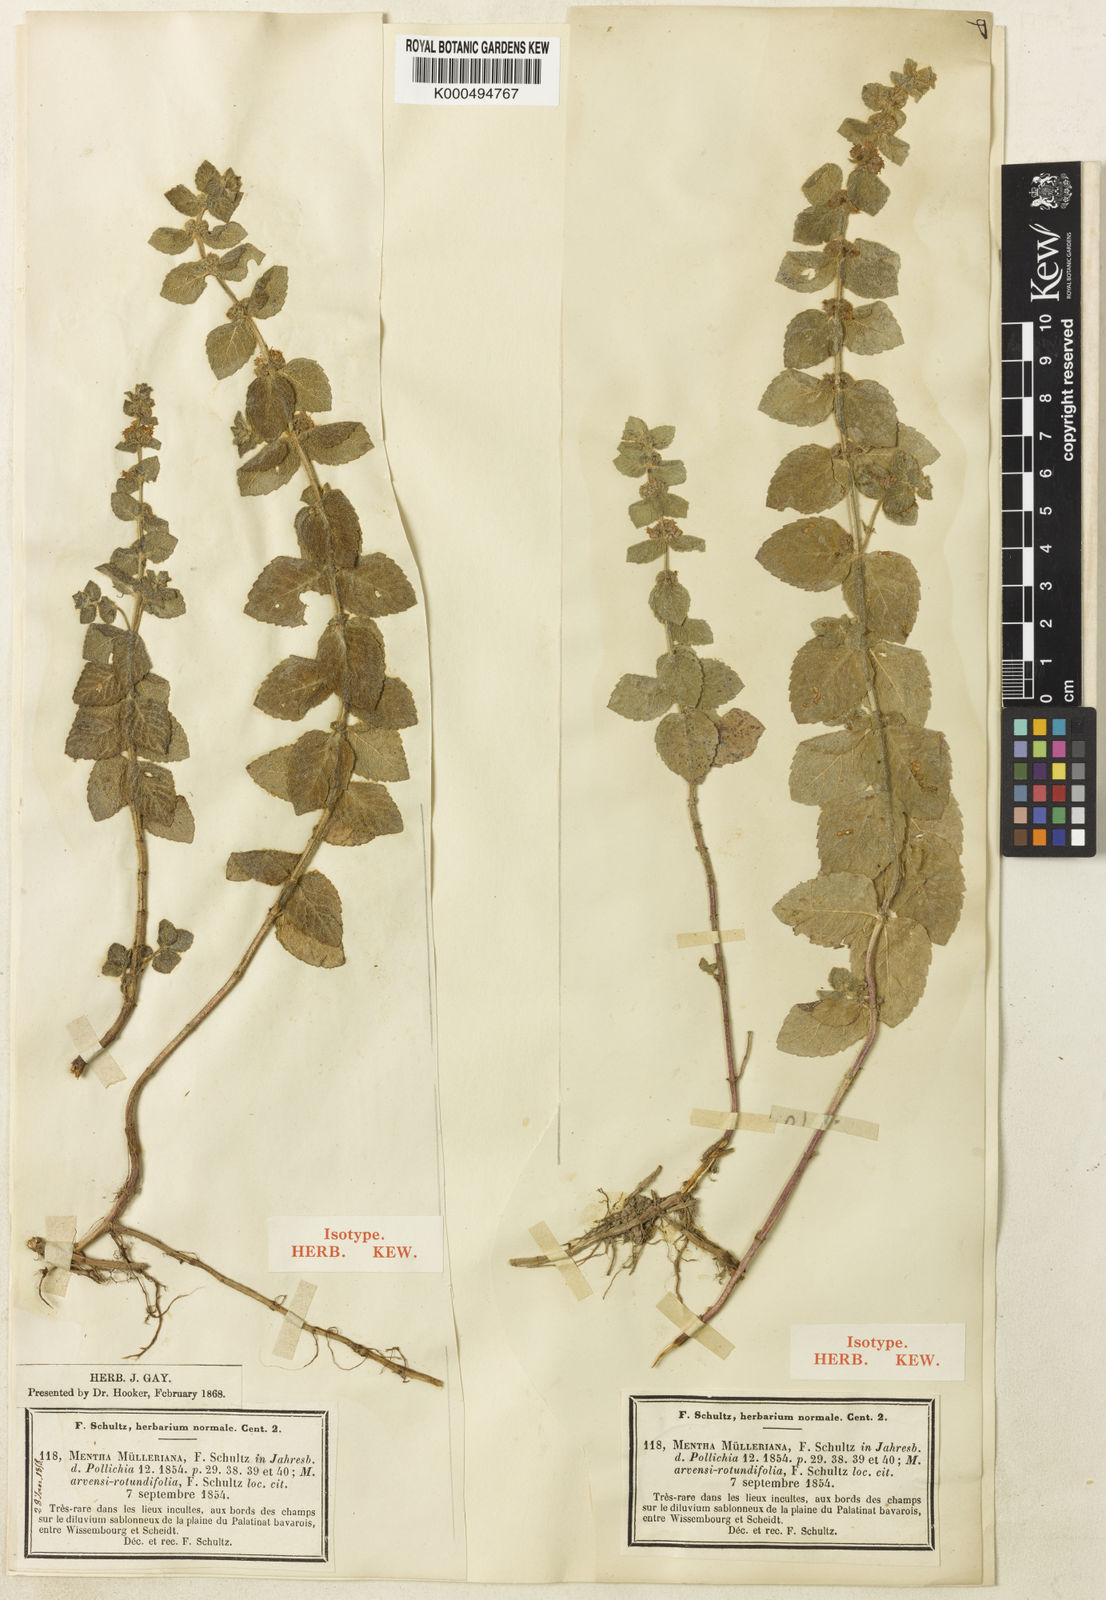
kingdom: Plantae
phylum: Tracheophyta
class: Magnoliopsida
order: Lamiales
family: Lamiaceae
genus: Mentha
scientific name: Mentha carinthiaca
